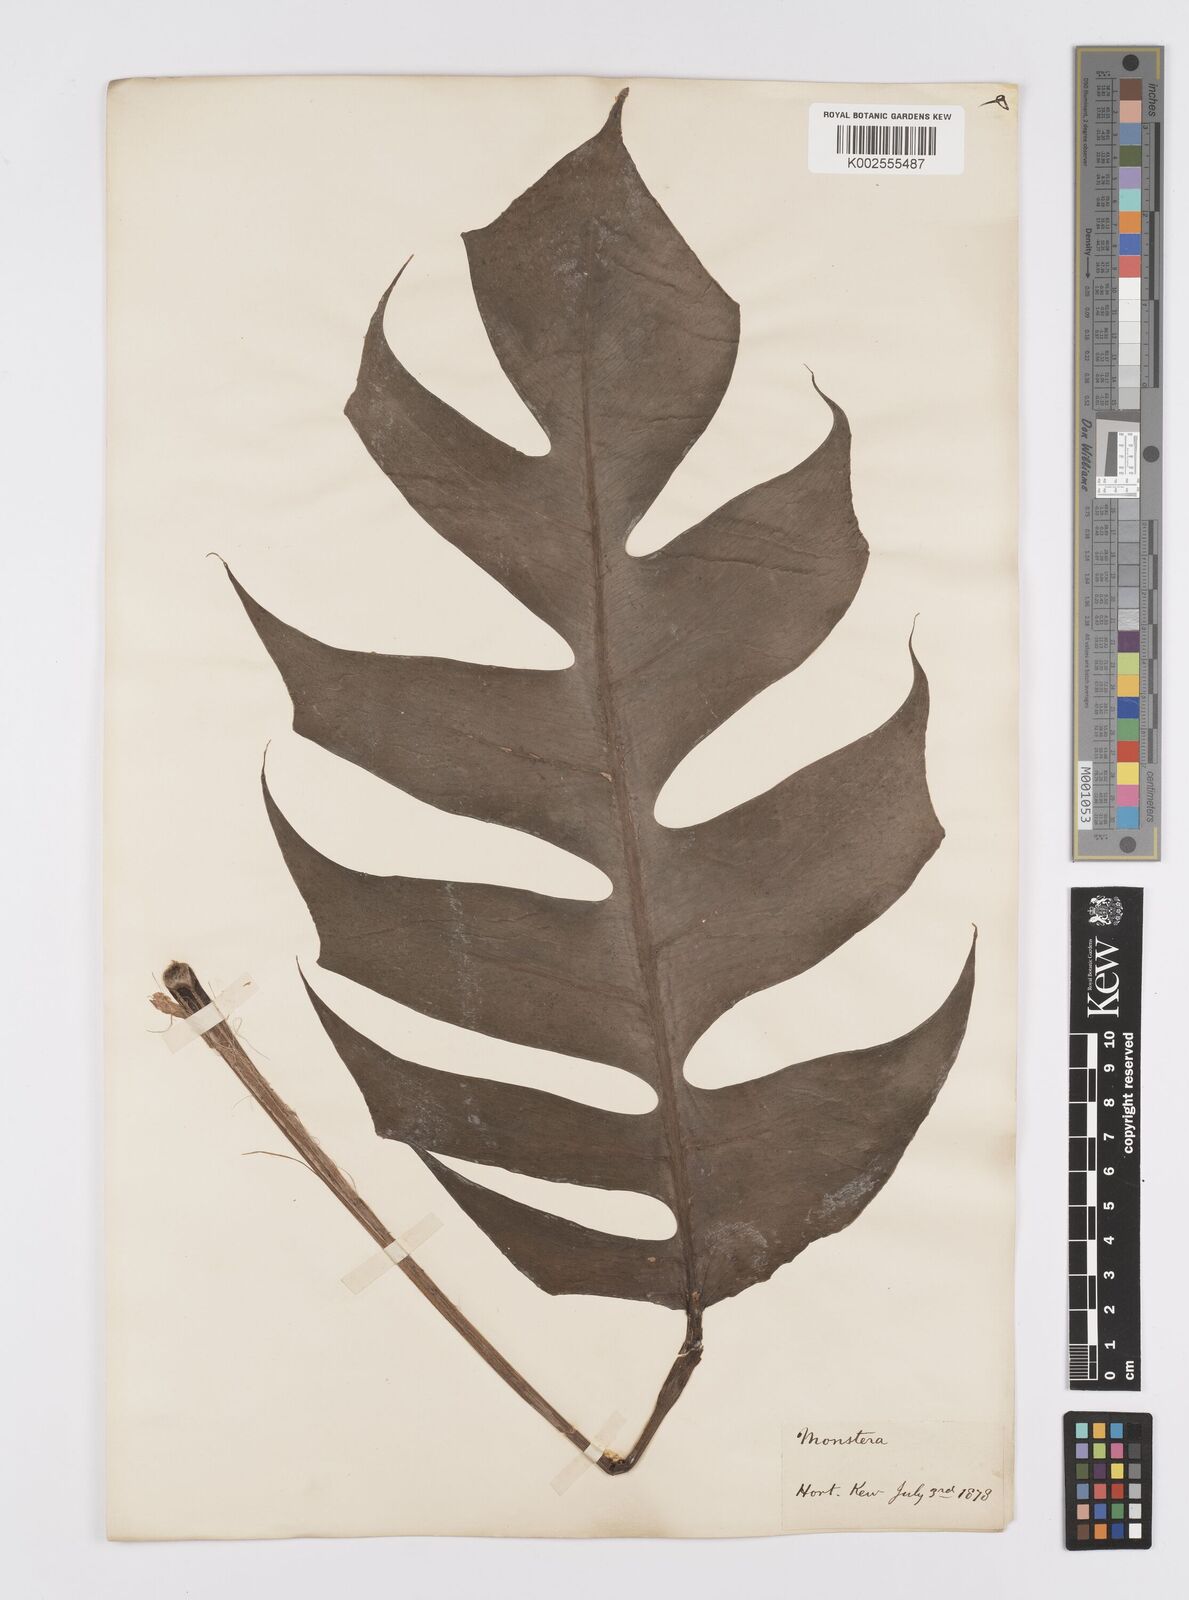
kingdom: Plantae
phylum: Tracheophyta
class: Liliopsida
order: Alismatales
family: Araceae
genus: Epipremnum
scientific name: Epipremnum pinnatum
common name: Centipede tongavine
